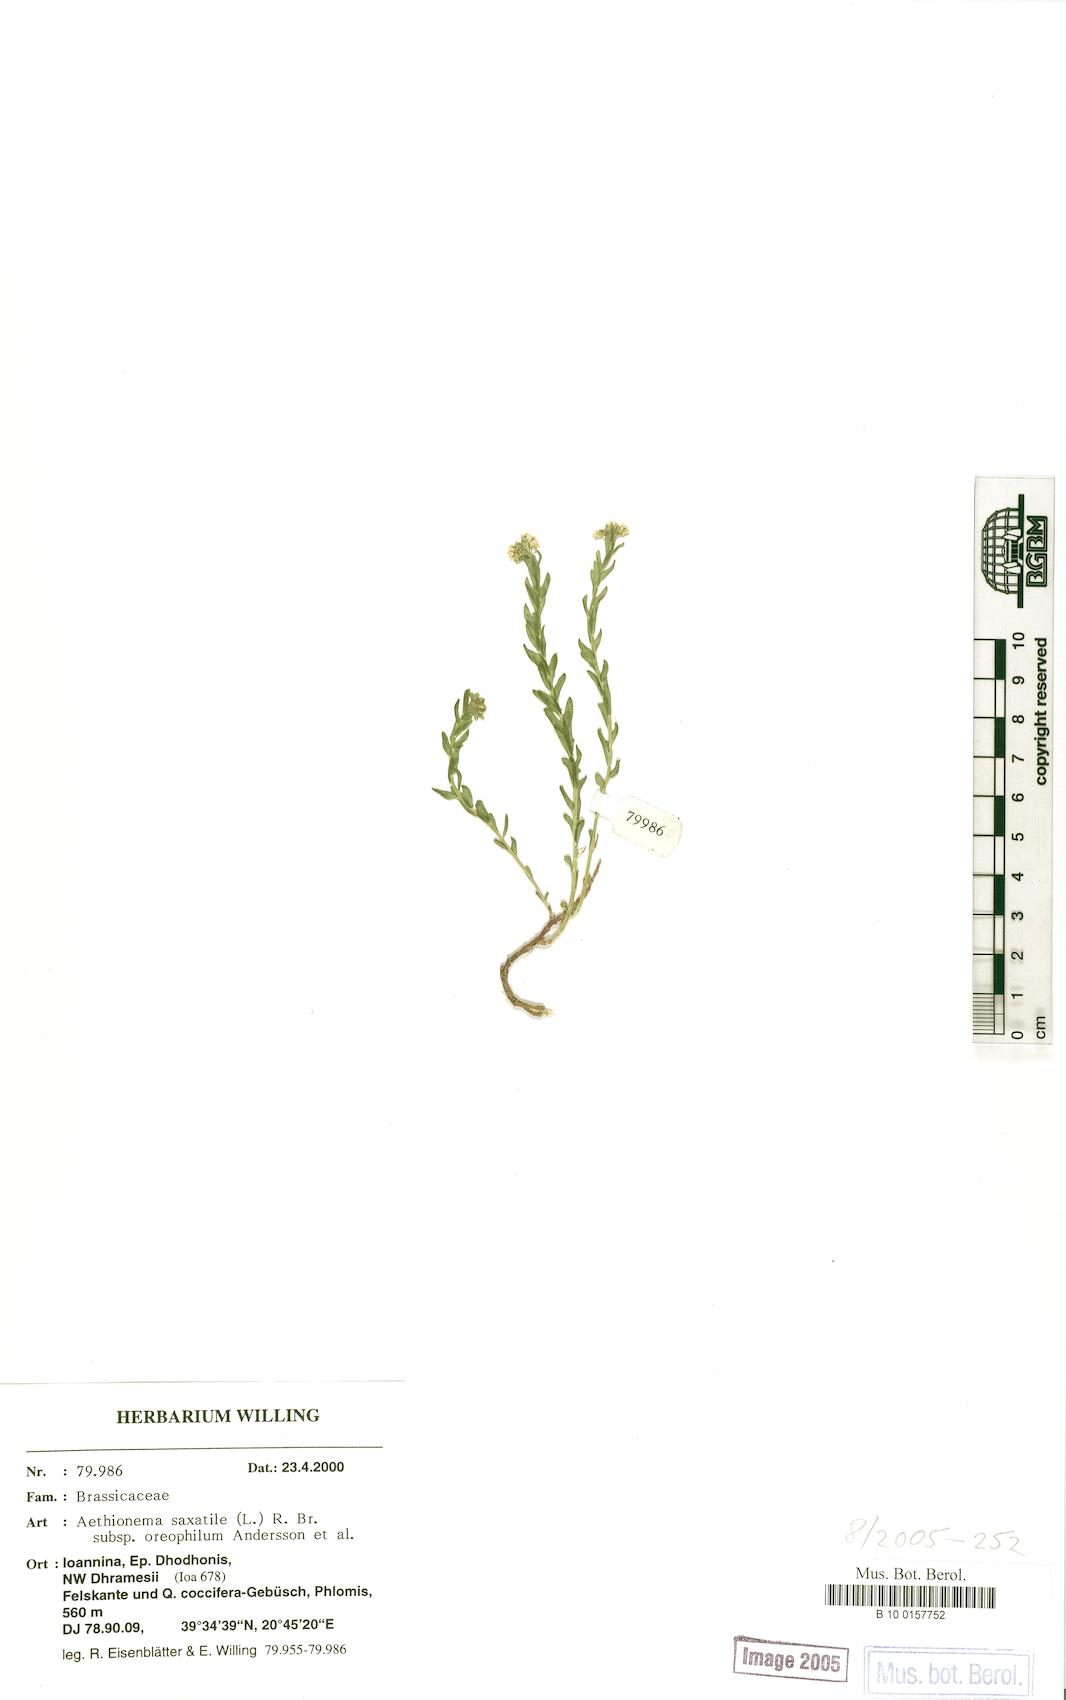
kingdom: Plantae
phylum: Tracheophyta
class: Magnoliopsida
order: Brassicales
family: Brassicaceae
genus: Aethionema
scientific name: Aethionema saxatile
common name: Burnt candytuft
